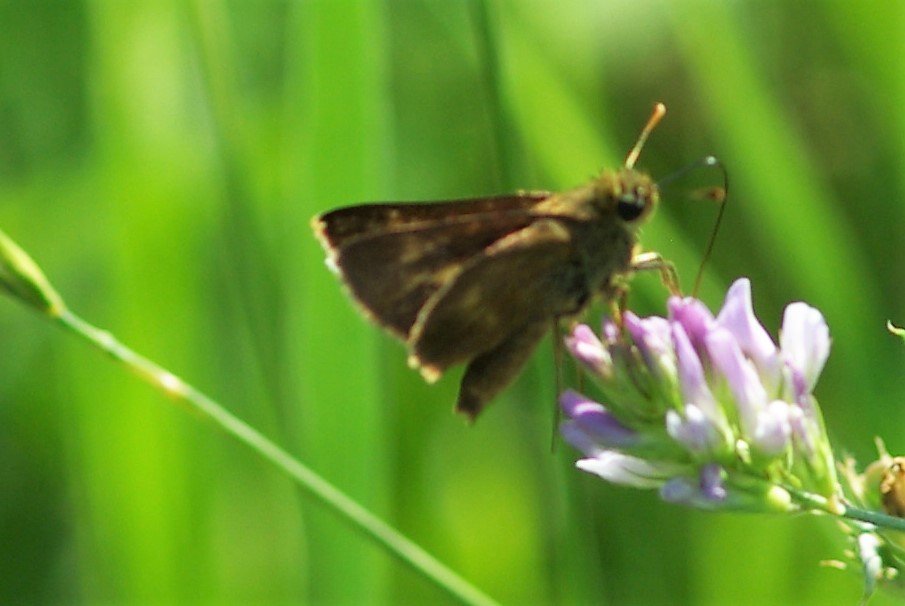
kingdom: Animalia
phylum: Arthropoda
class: Insecta
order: Lepidoptera
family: Hesperiidae
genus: Euphyes
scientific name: Euphyes vestris
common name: Dun Skipper
